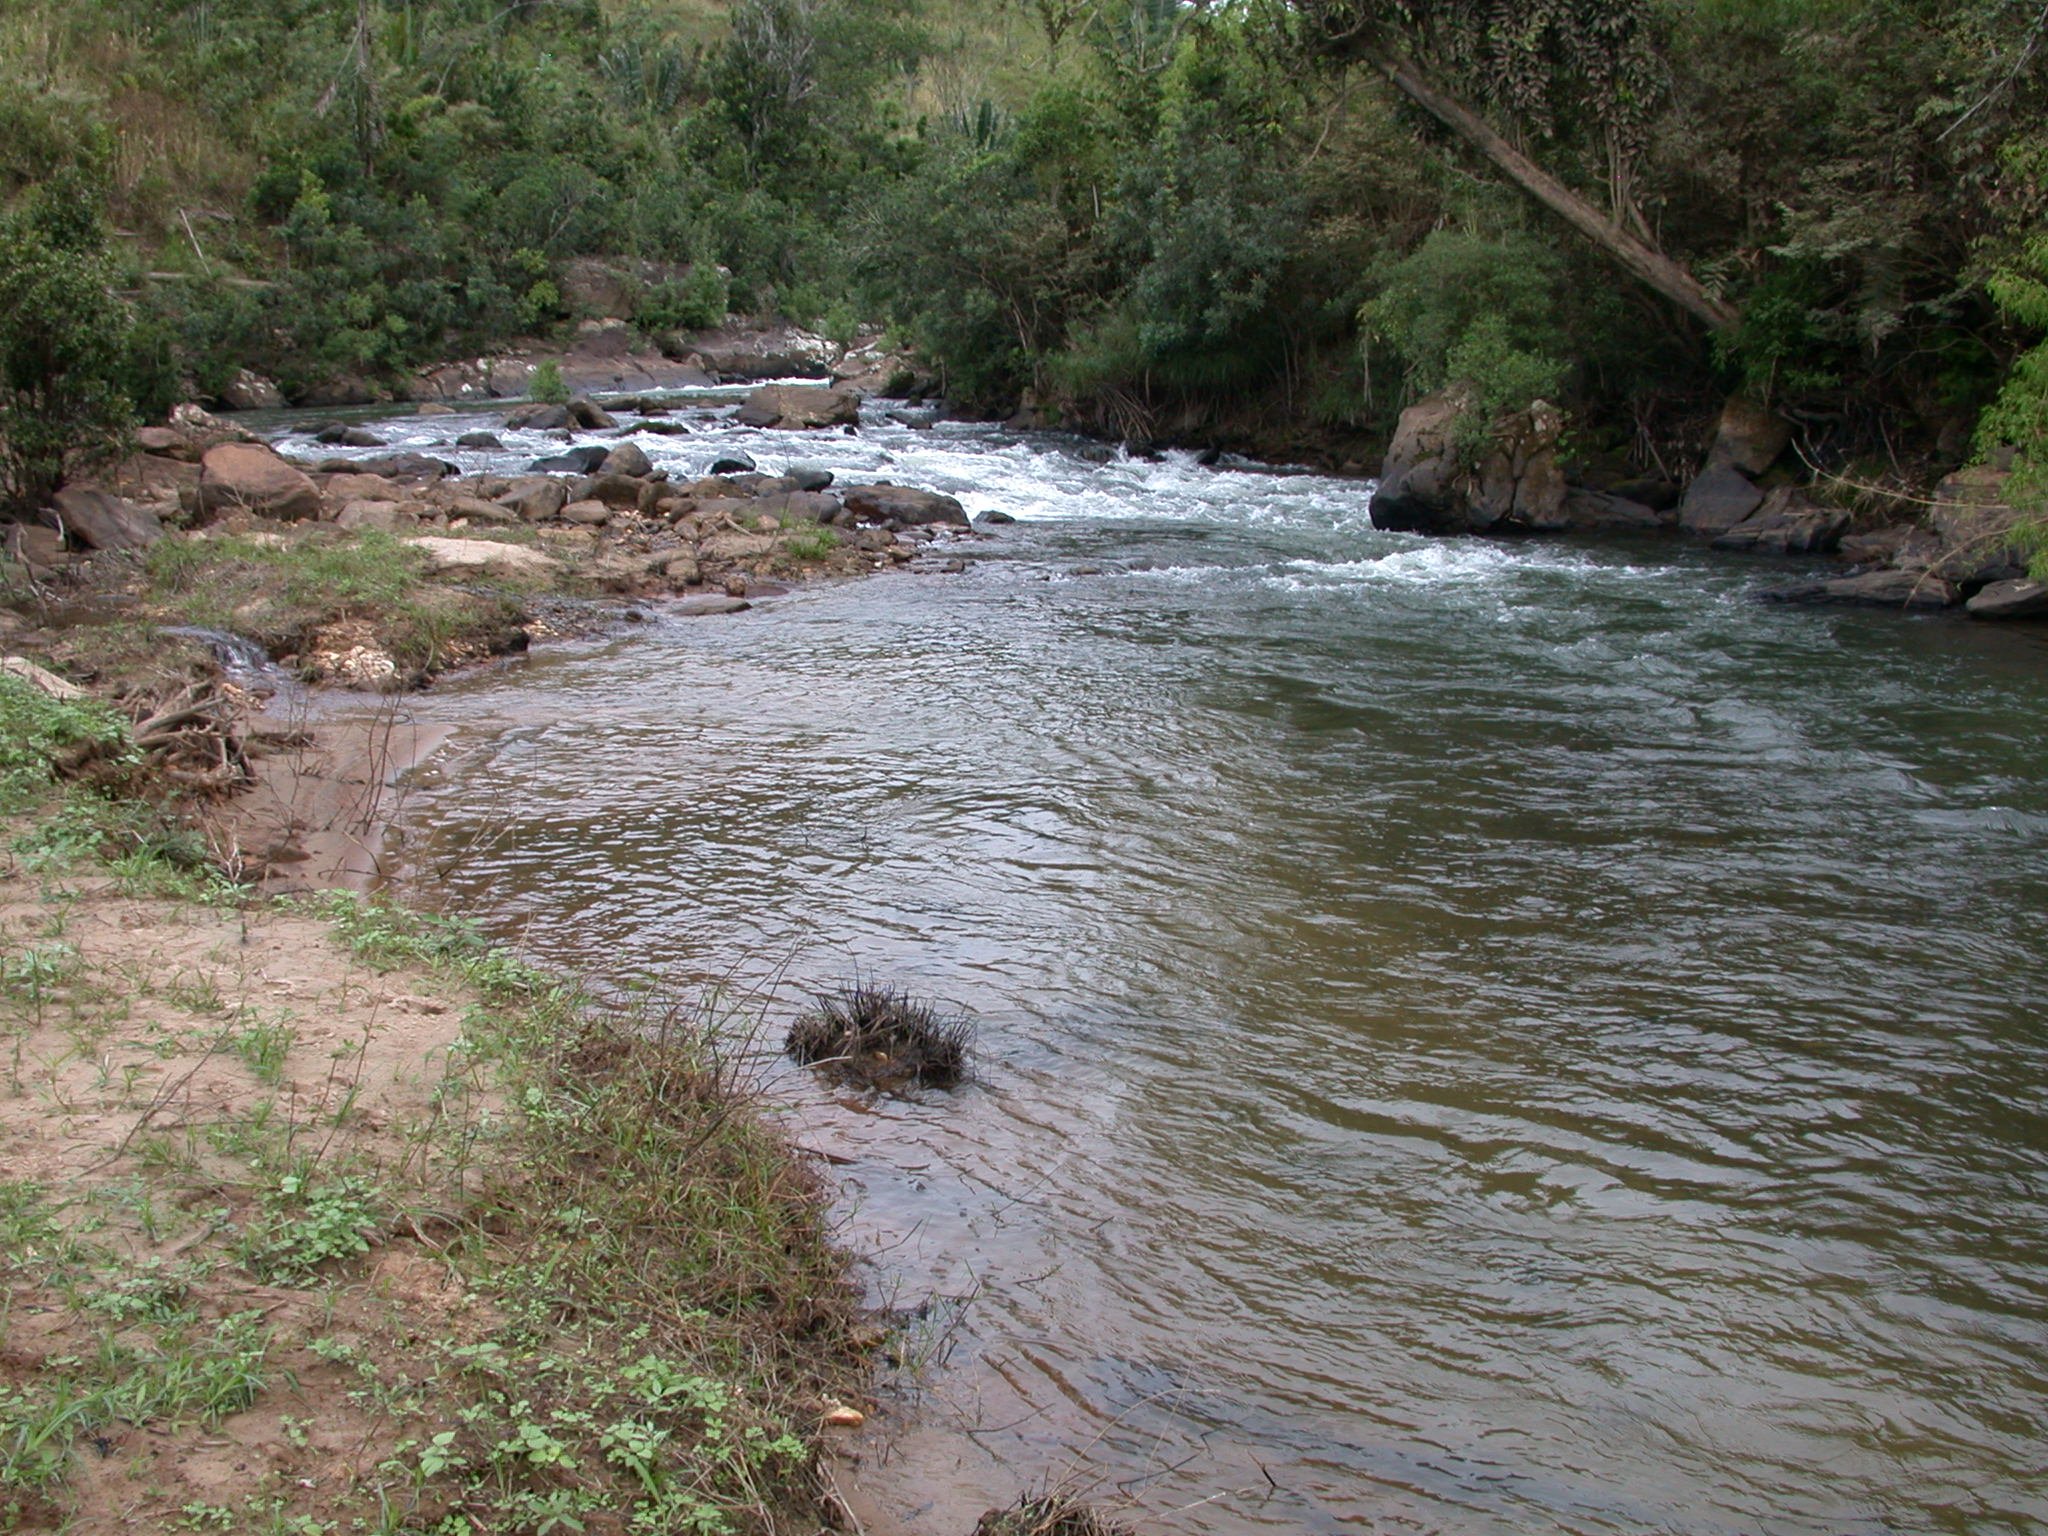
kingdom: Animalia
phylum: Chordata
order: Atheriniformes
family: Bedotiidae
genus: Rheocles
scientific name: Rheocles
